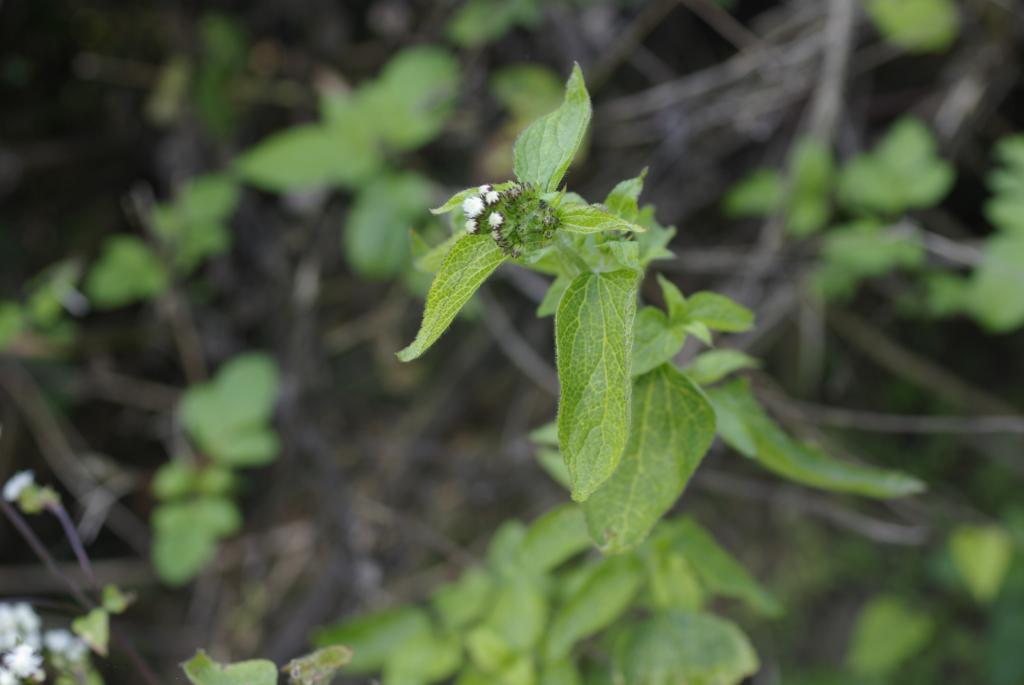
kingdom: Plantae
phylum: Tracheophyta
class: Magnoliopsida
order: Asterales
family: Asteraceae
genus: Ageratum
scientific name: Ageratum conyzoides
